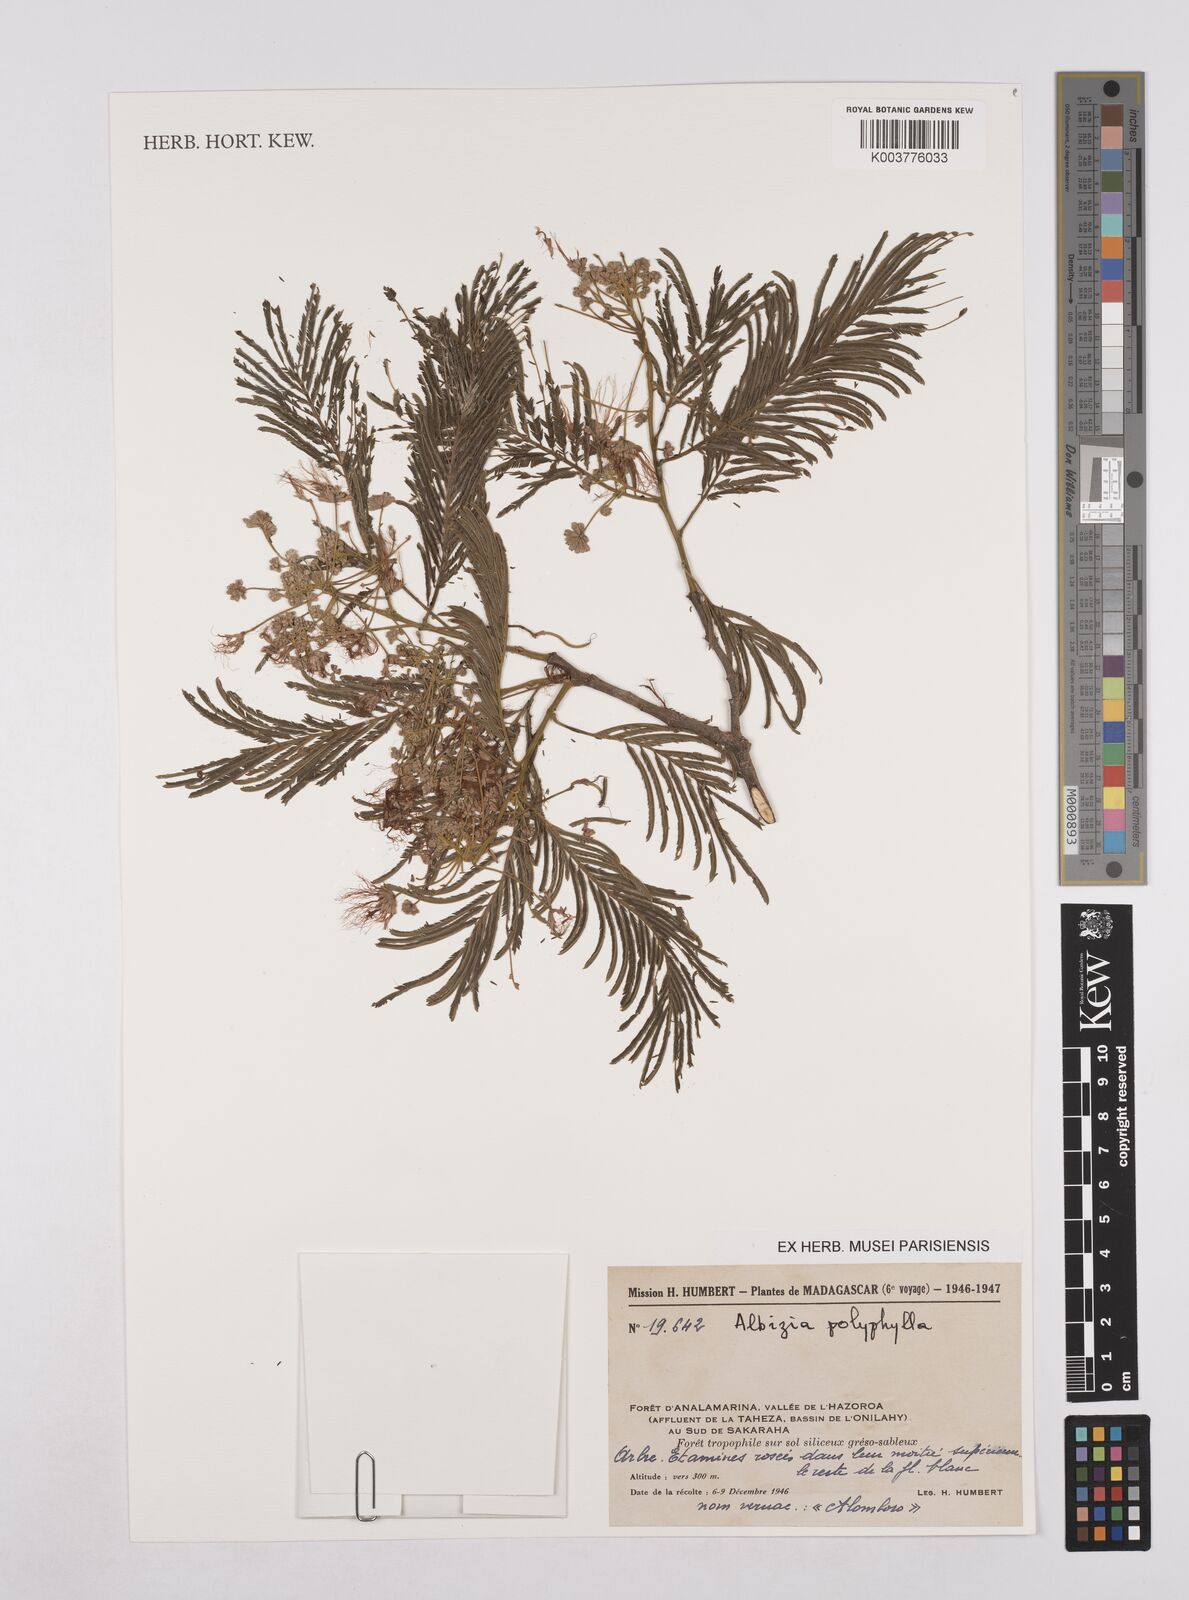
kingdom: Plantae
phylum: Tracheophyta
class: Magnoliopsida
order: Fabales
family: Fabaceae
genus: Albizia
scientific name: Albizia polyphylla
